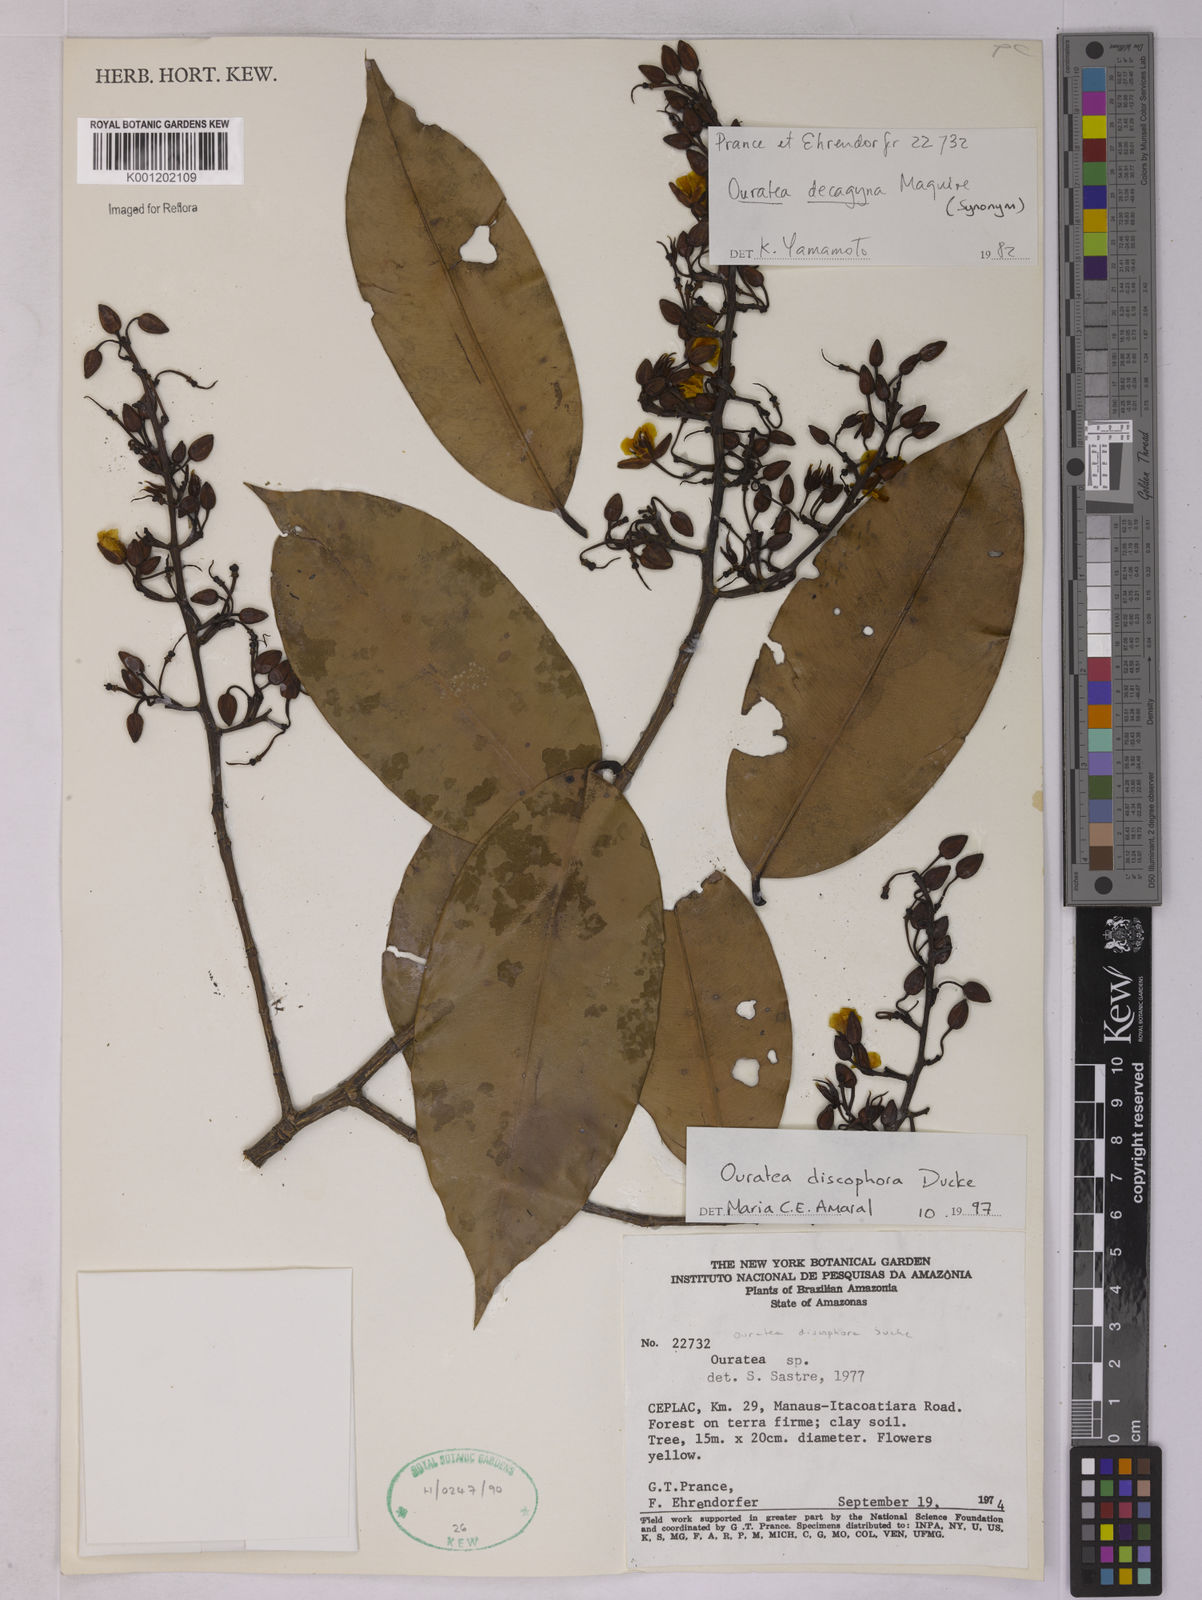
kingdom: Plantae
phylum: Tracheophyta
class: Magnoliopsida
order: Malpighiales
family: Ochnaceae
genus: Ouratea
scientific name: Ouratea discophora
